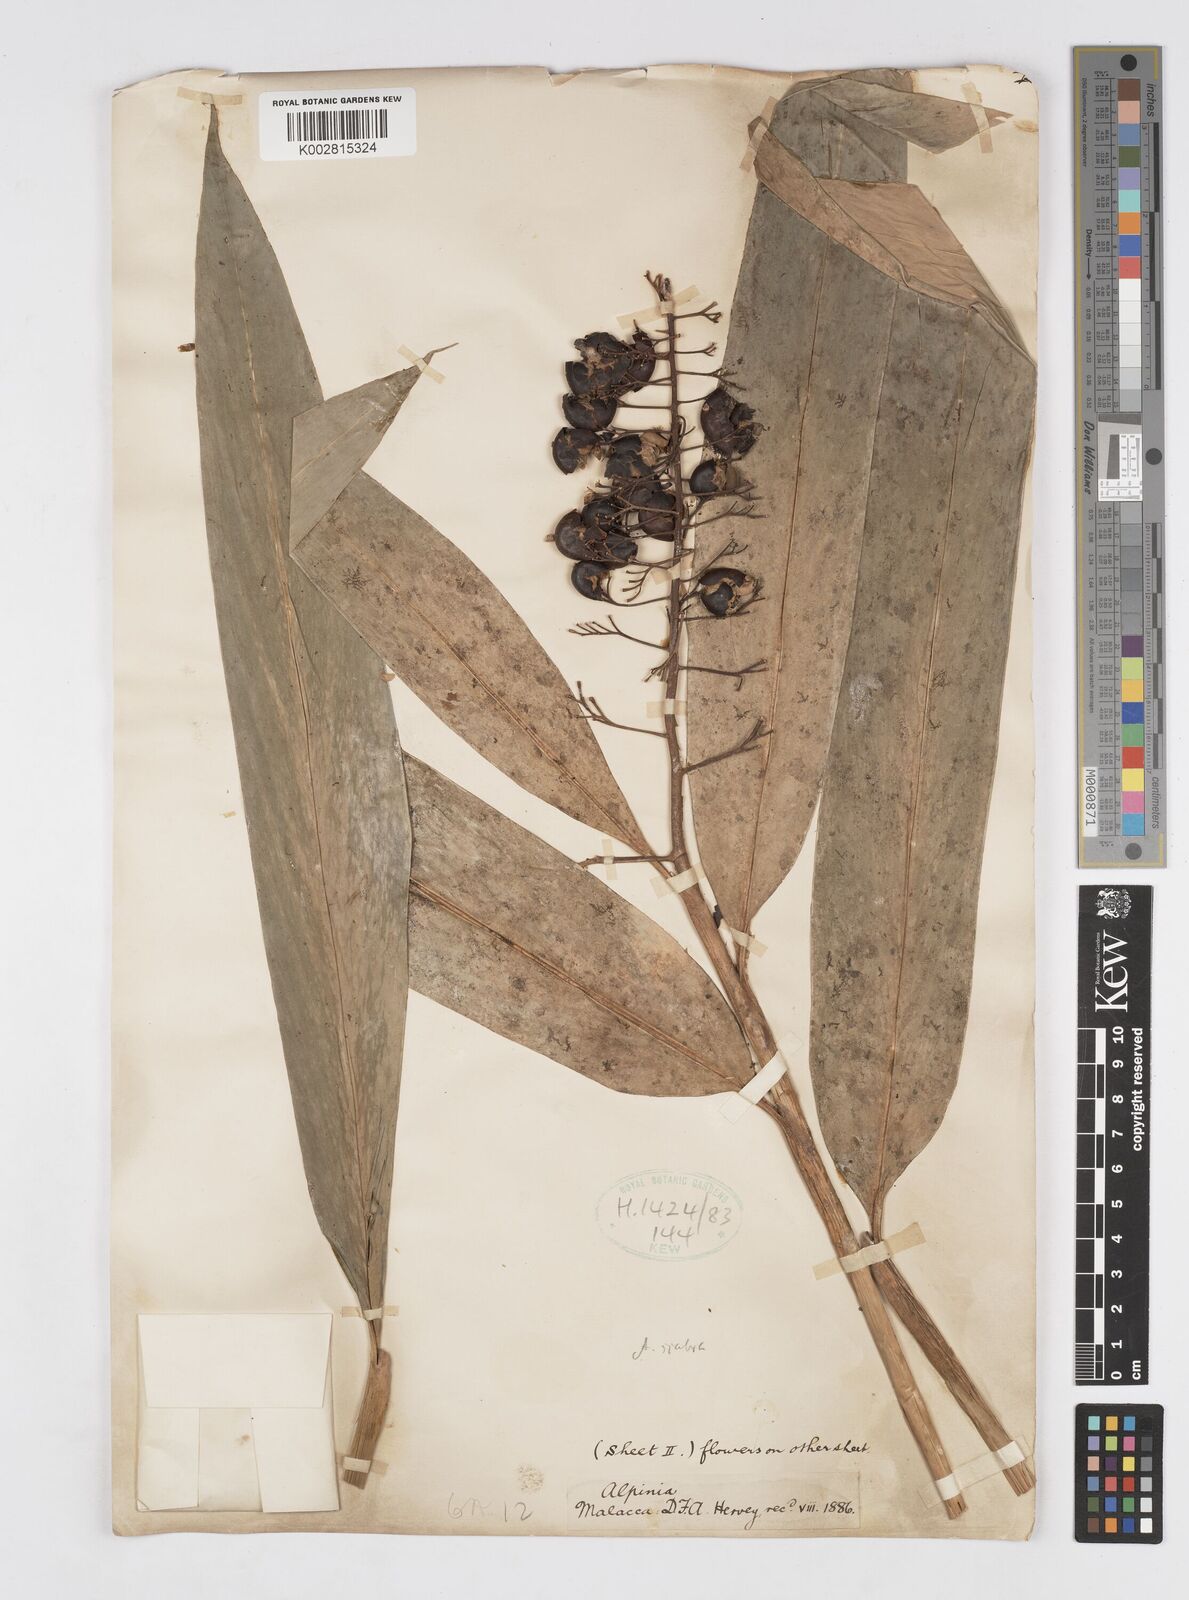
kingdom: Plantae
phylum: Tracheophyta
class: Liliopsida
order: Zingiberales
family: Zingiberaceae
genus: Alpinia
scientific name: Alpinia scabra
